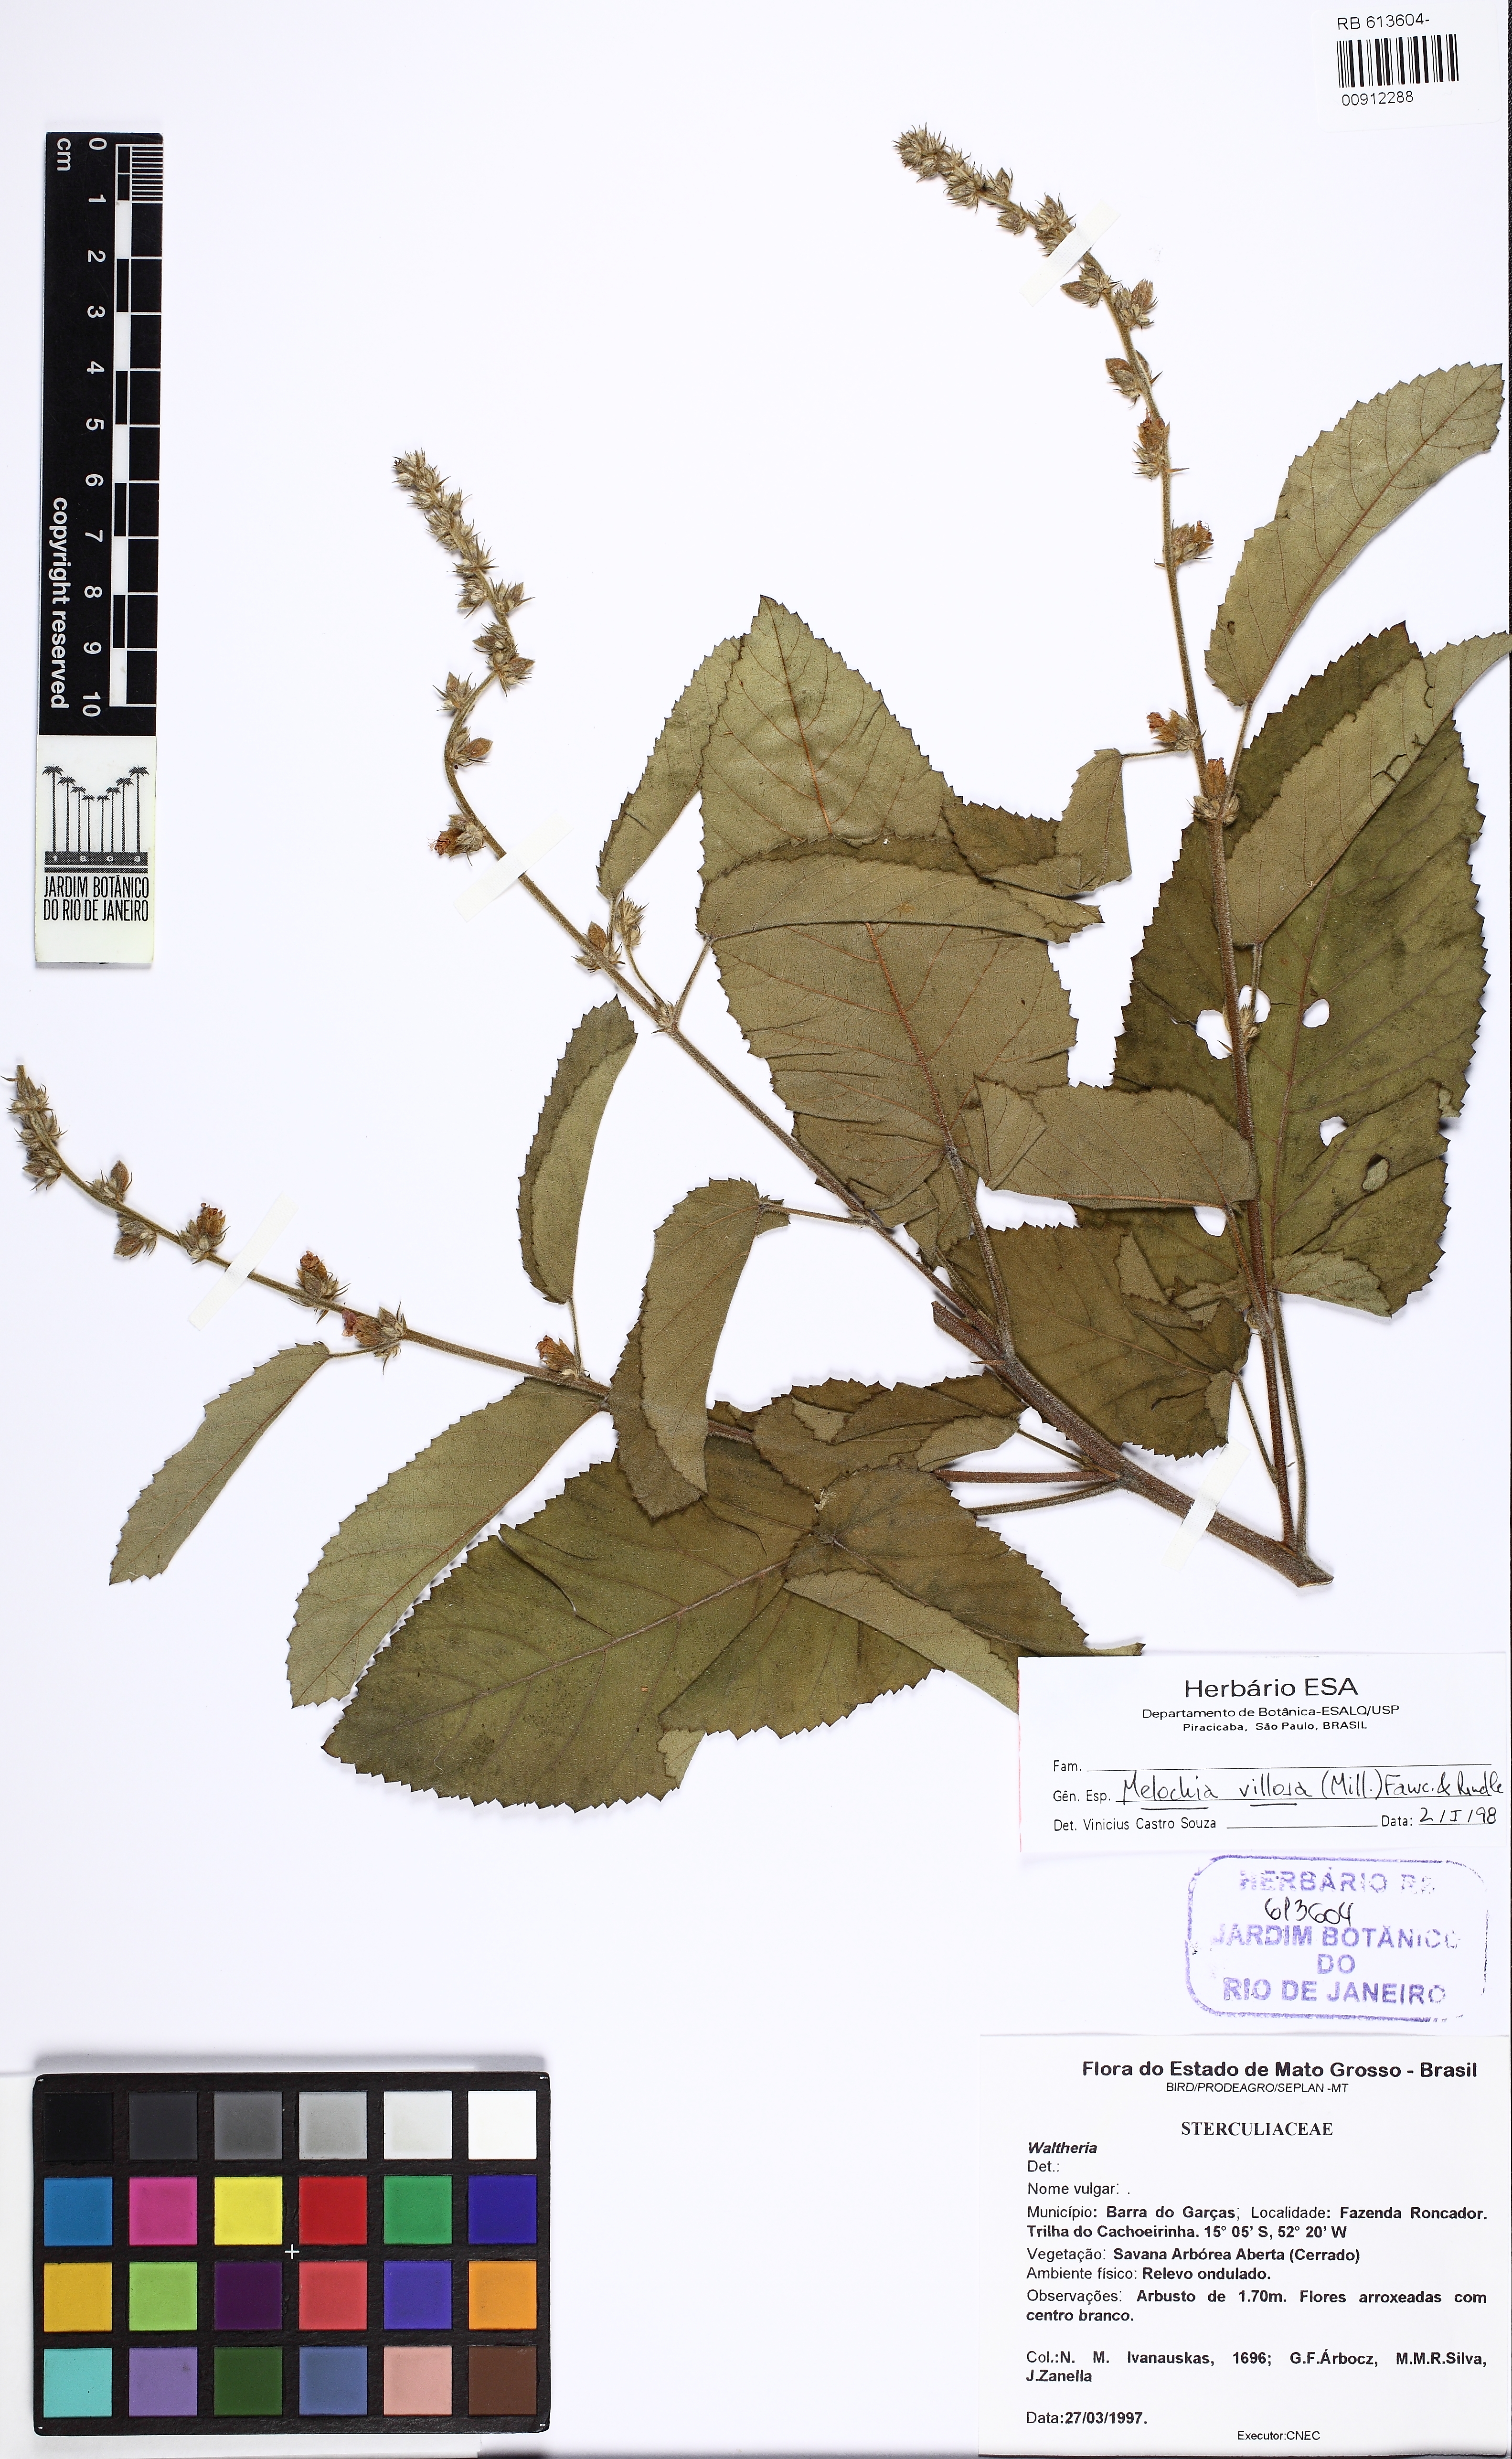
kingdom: Plantae
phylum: Tracheophyta
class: Magnoliopsida
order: Malvales
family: Malvaceae
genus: Melochia
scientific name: Melochia spicata
